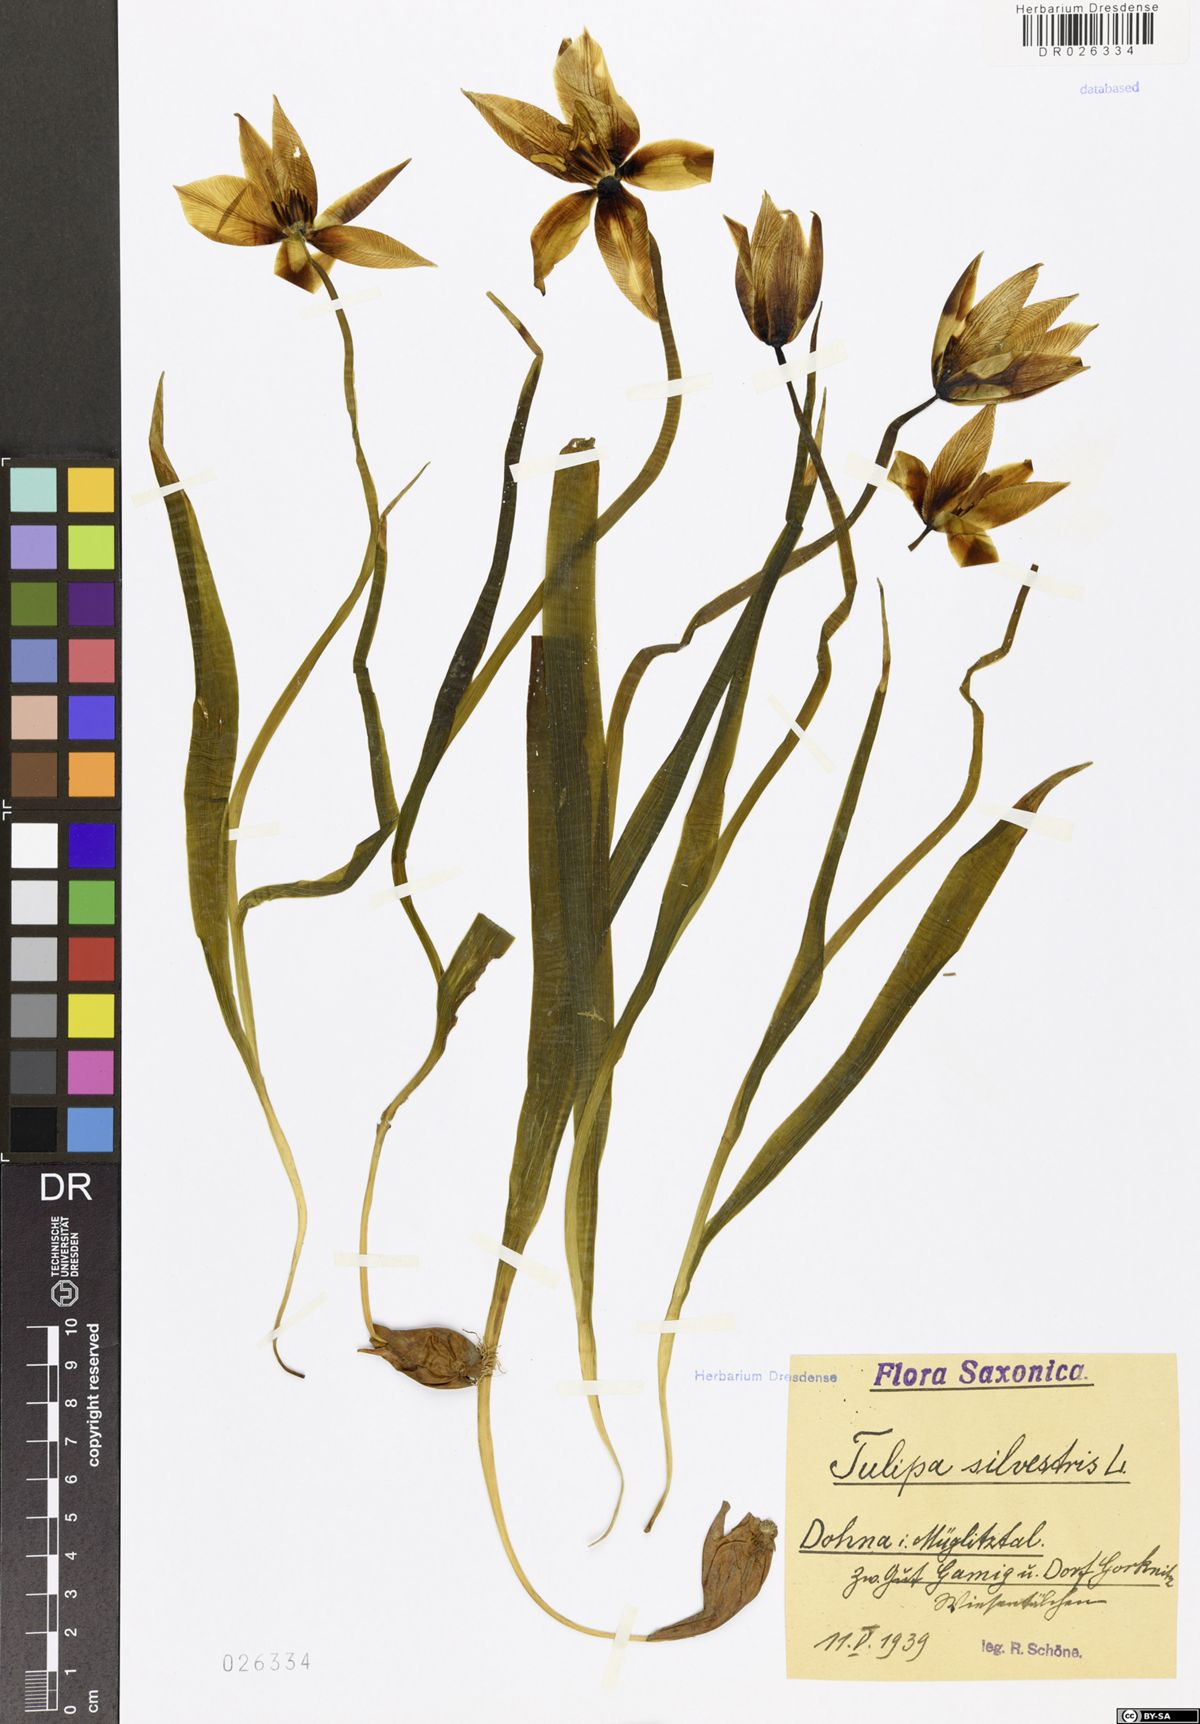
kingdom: Plantae
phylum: Tracheophyta
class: Liliopsida
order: Liliales
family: Liliaceae
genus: Tulipa
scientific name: Tulipa sylvestris
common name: Wild tulip
